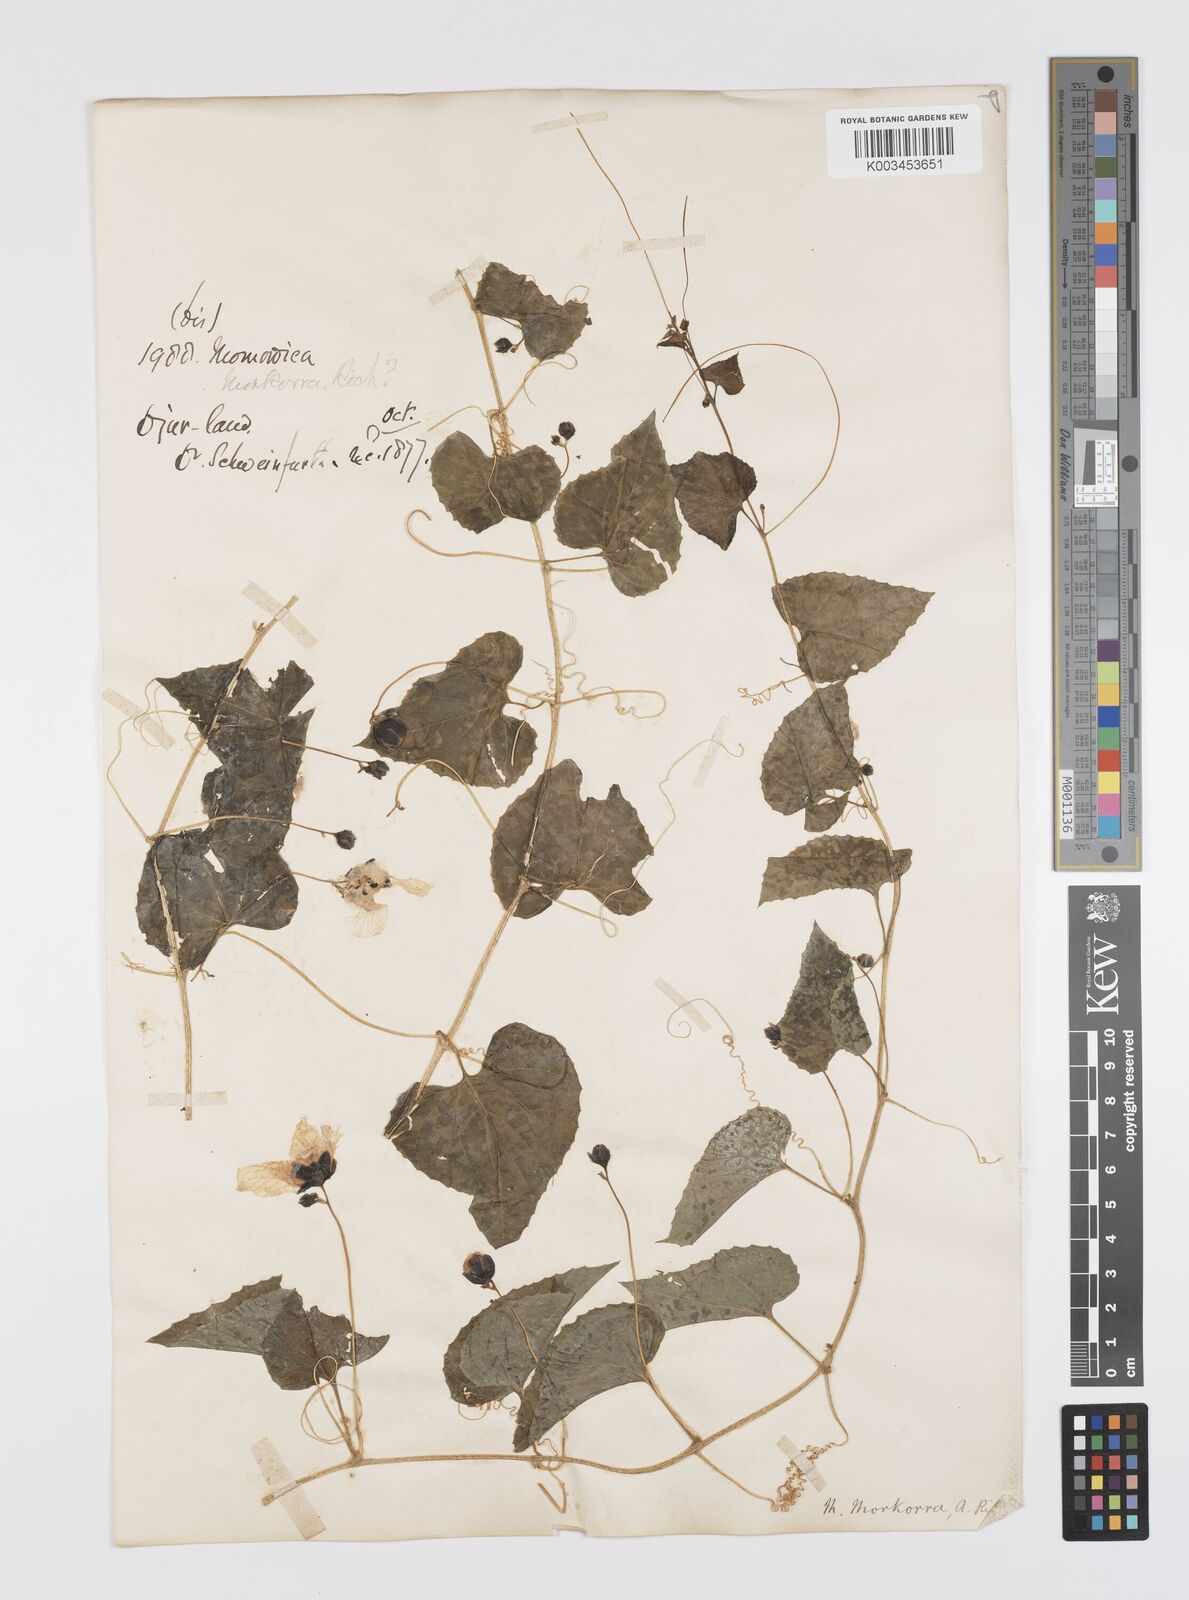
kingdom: Plantae
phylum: Tracheophyta
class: Magnoliopsida
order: Cucurbitales
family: Cucurbitaceae
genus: Momordica
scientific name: Momordica foetida
